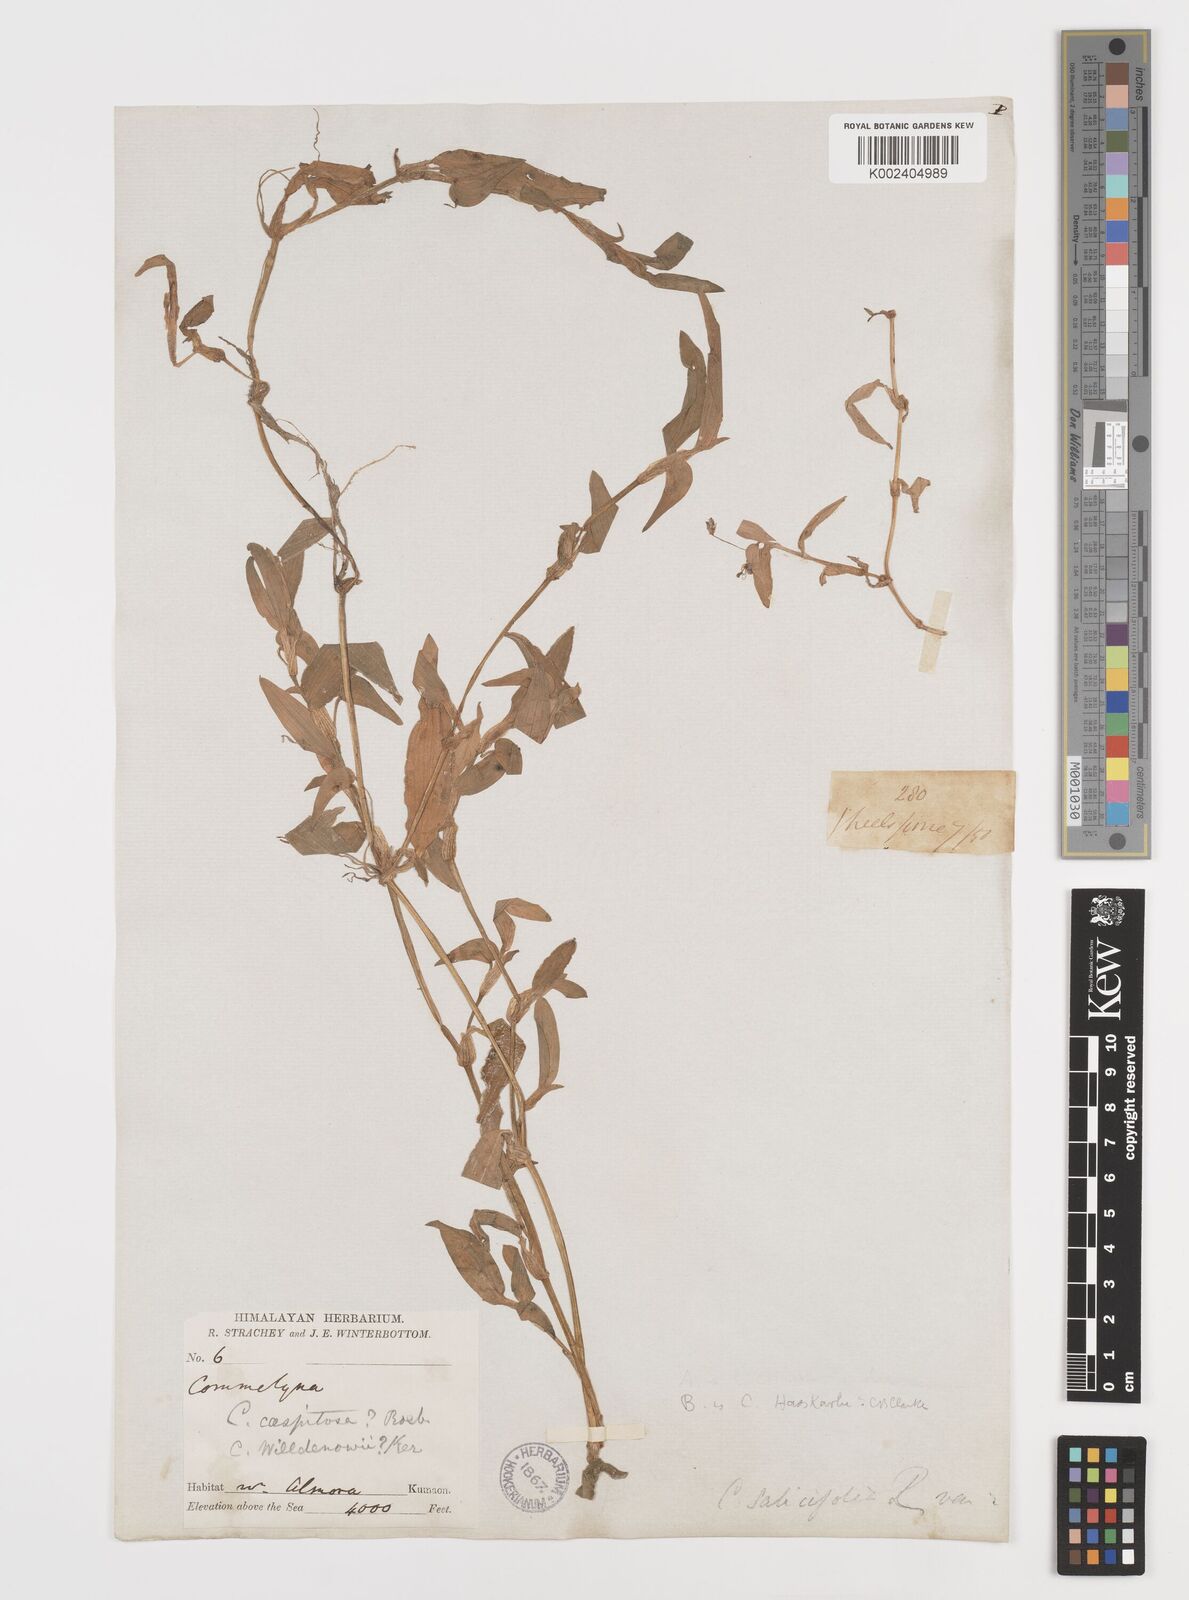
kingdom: Plantae
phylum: Tracheophyta
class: Liliopsida
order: Commelinales
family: Commelinaceae
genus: Commelina
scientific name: Commelina caroliniana
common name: Carolina dayflower
